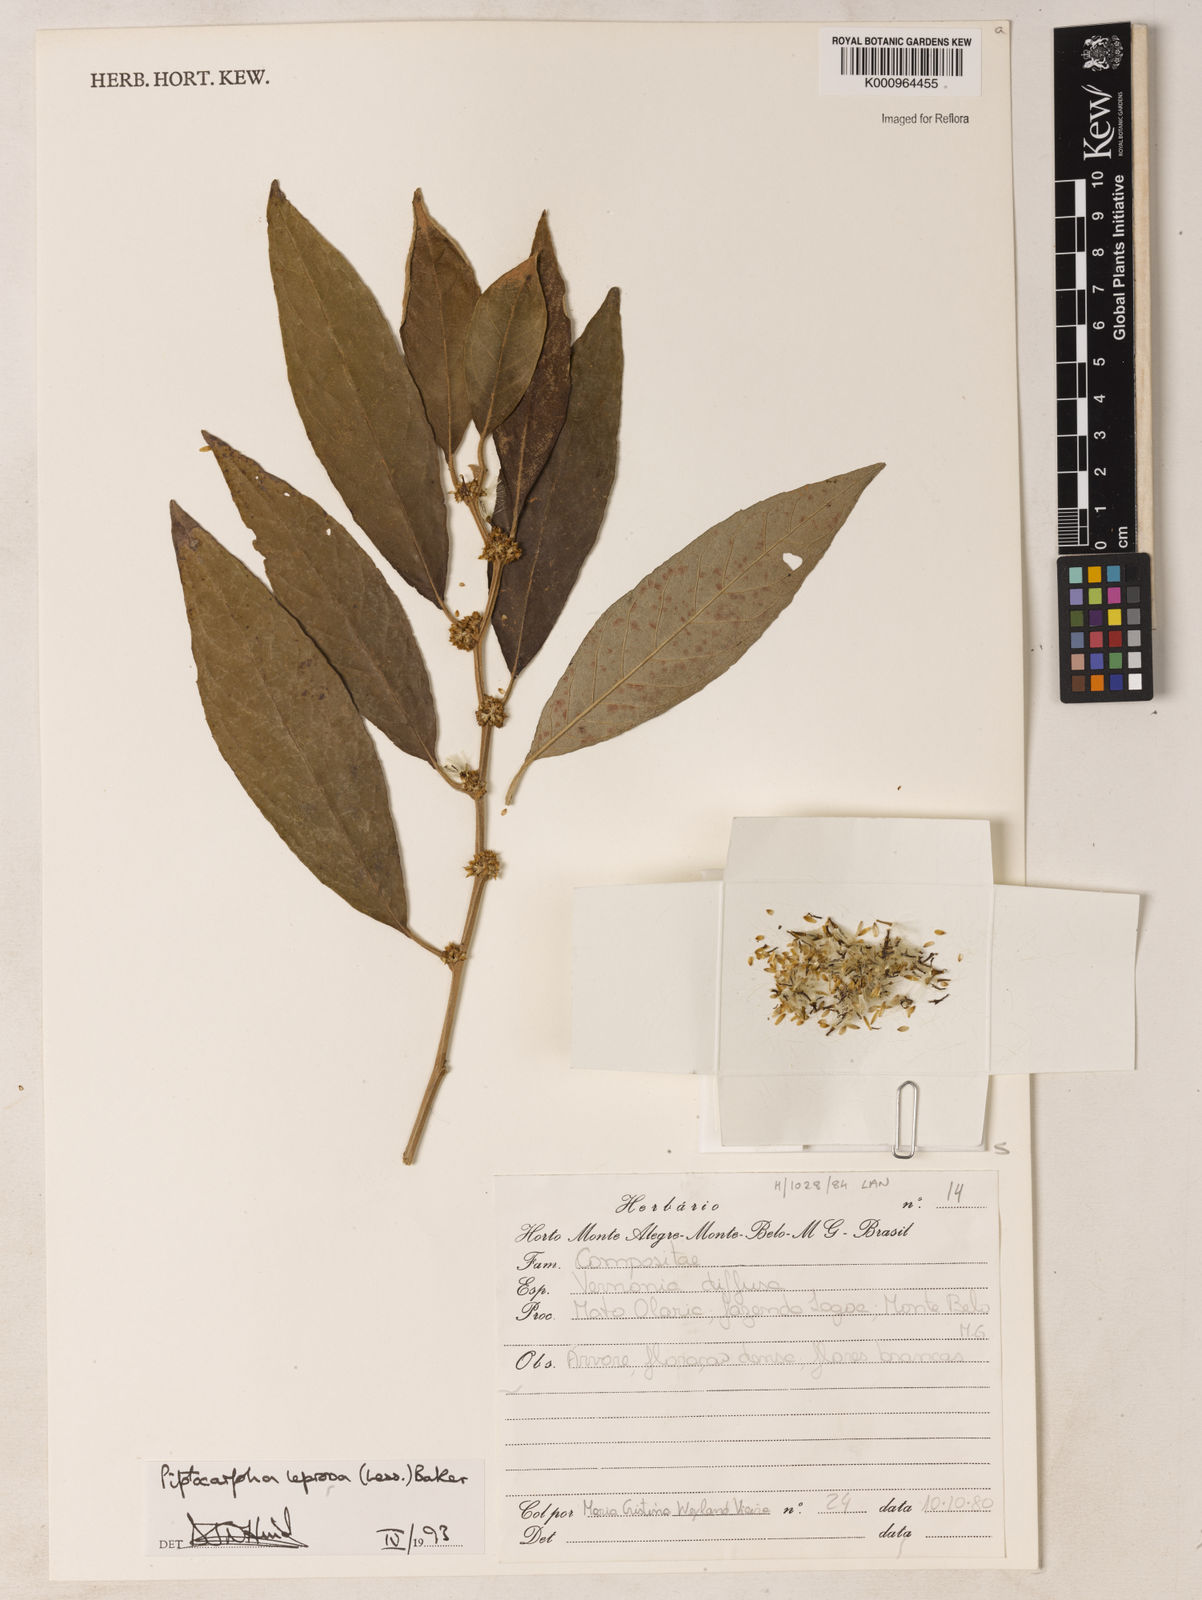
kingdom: Plantae
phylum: Tracheophyta
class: Magnoliopsida
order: Asterales
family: Asteraceae
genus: Piptocarpha
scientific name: Piptocarpha leprosa
